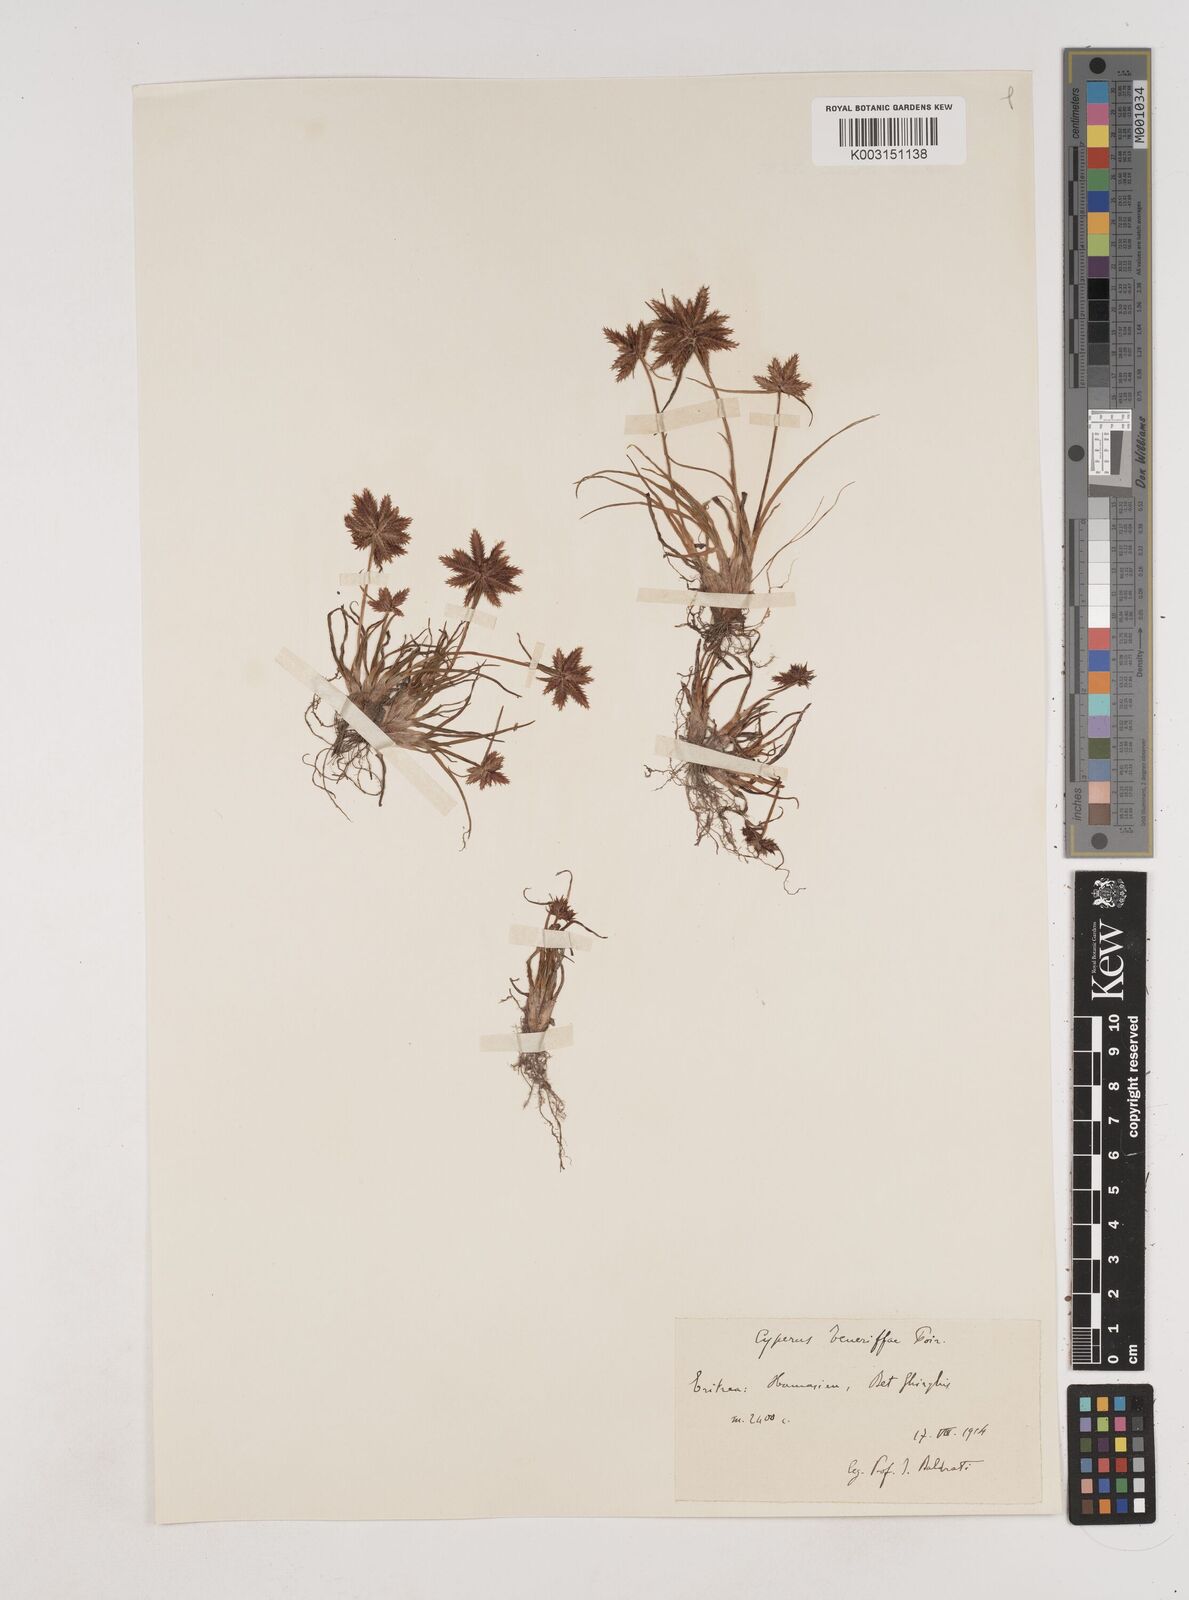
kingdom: Plantae
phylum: Tracheophyta
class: Liliopsida
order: Poales
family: Cyperaceae
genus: Cyperus
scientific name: Cyperus rubicundus
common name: Coco-grass
